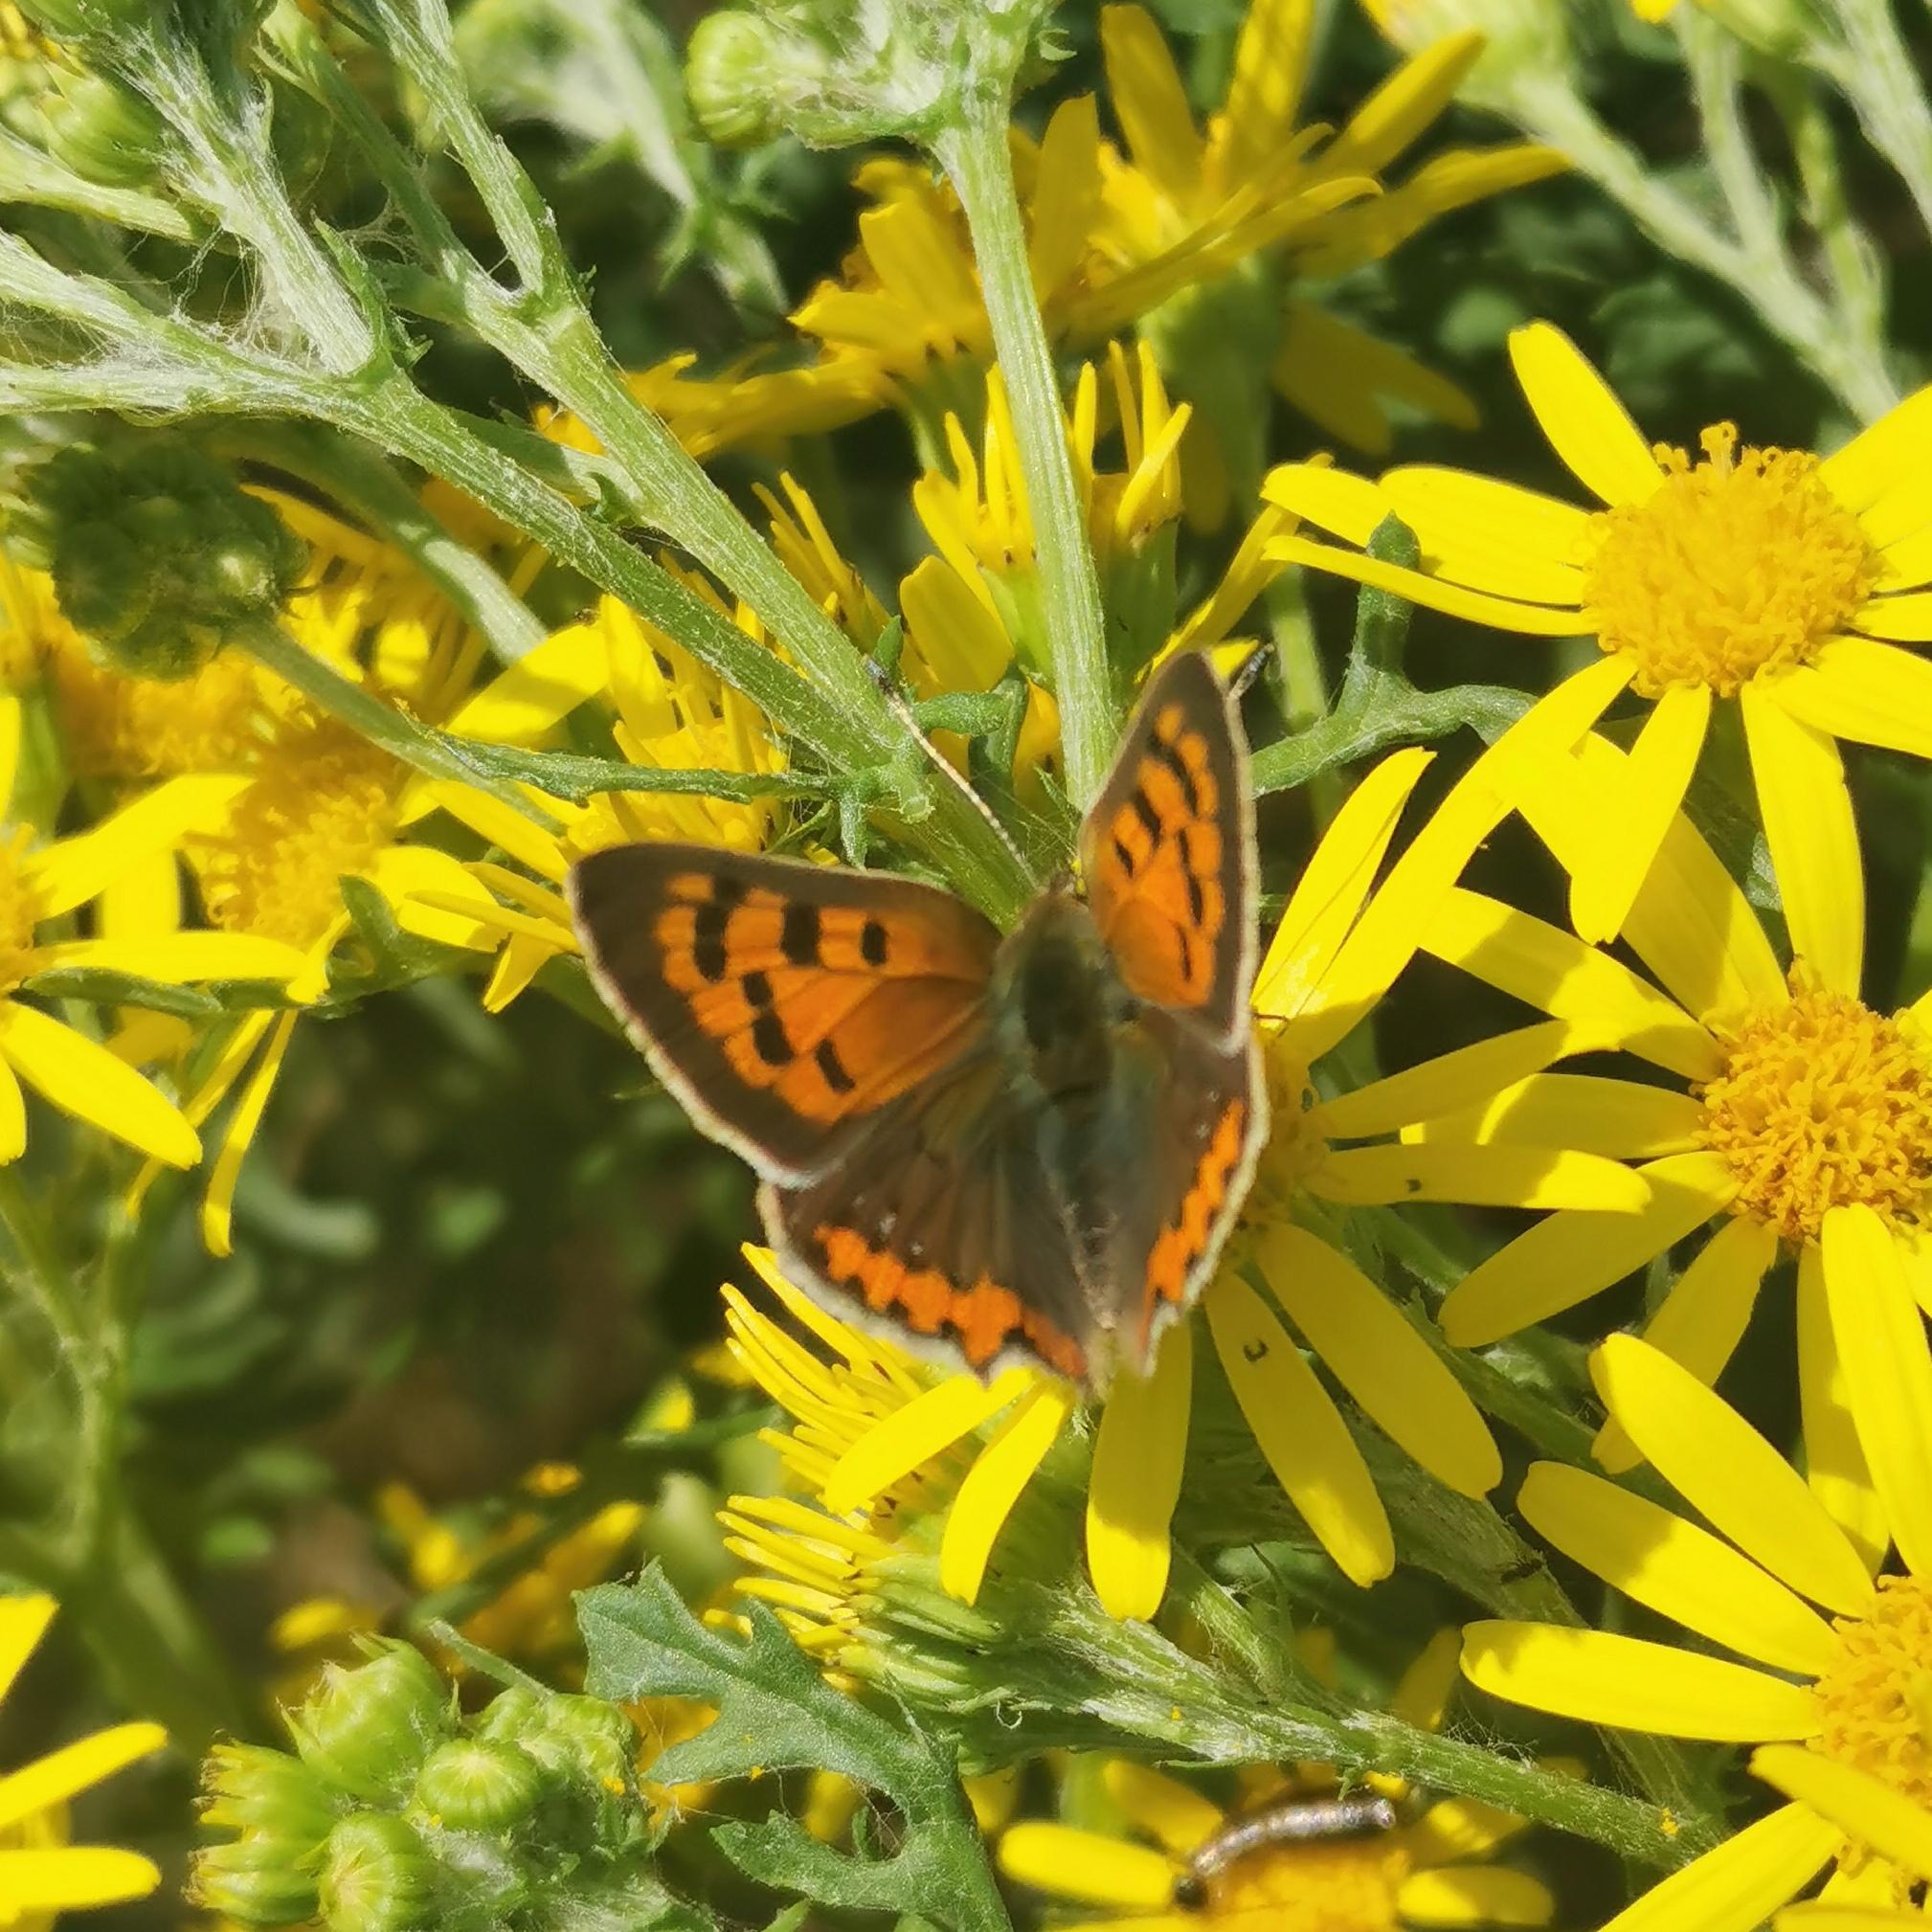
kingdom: Animalia
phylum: Arthropoda
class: Insecta
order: Lepidoptera
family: Lycaenidae
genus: Lycaena
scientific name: Lycaena phlaeas
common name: Lille ildfugl
